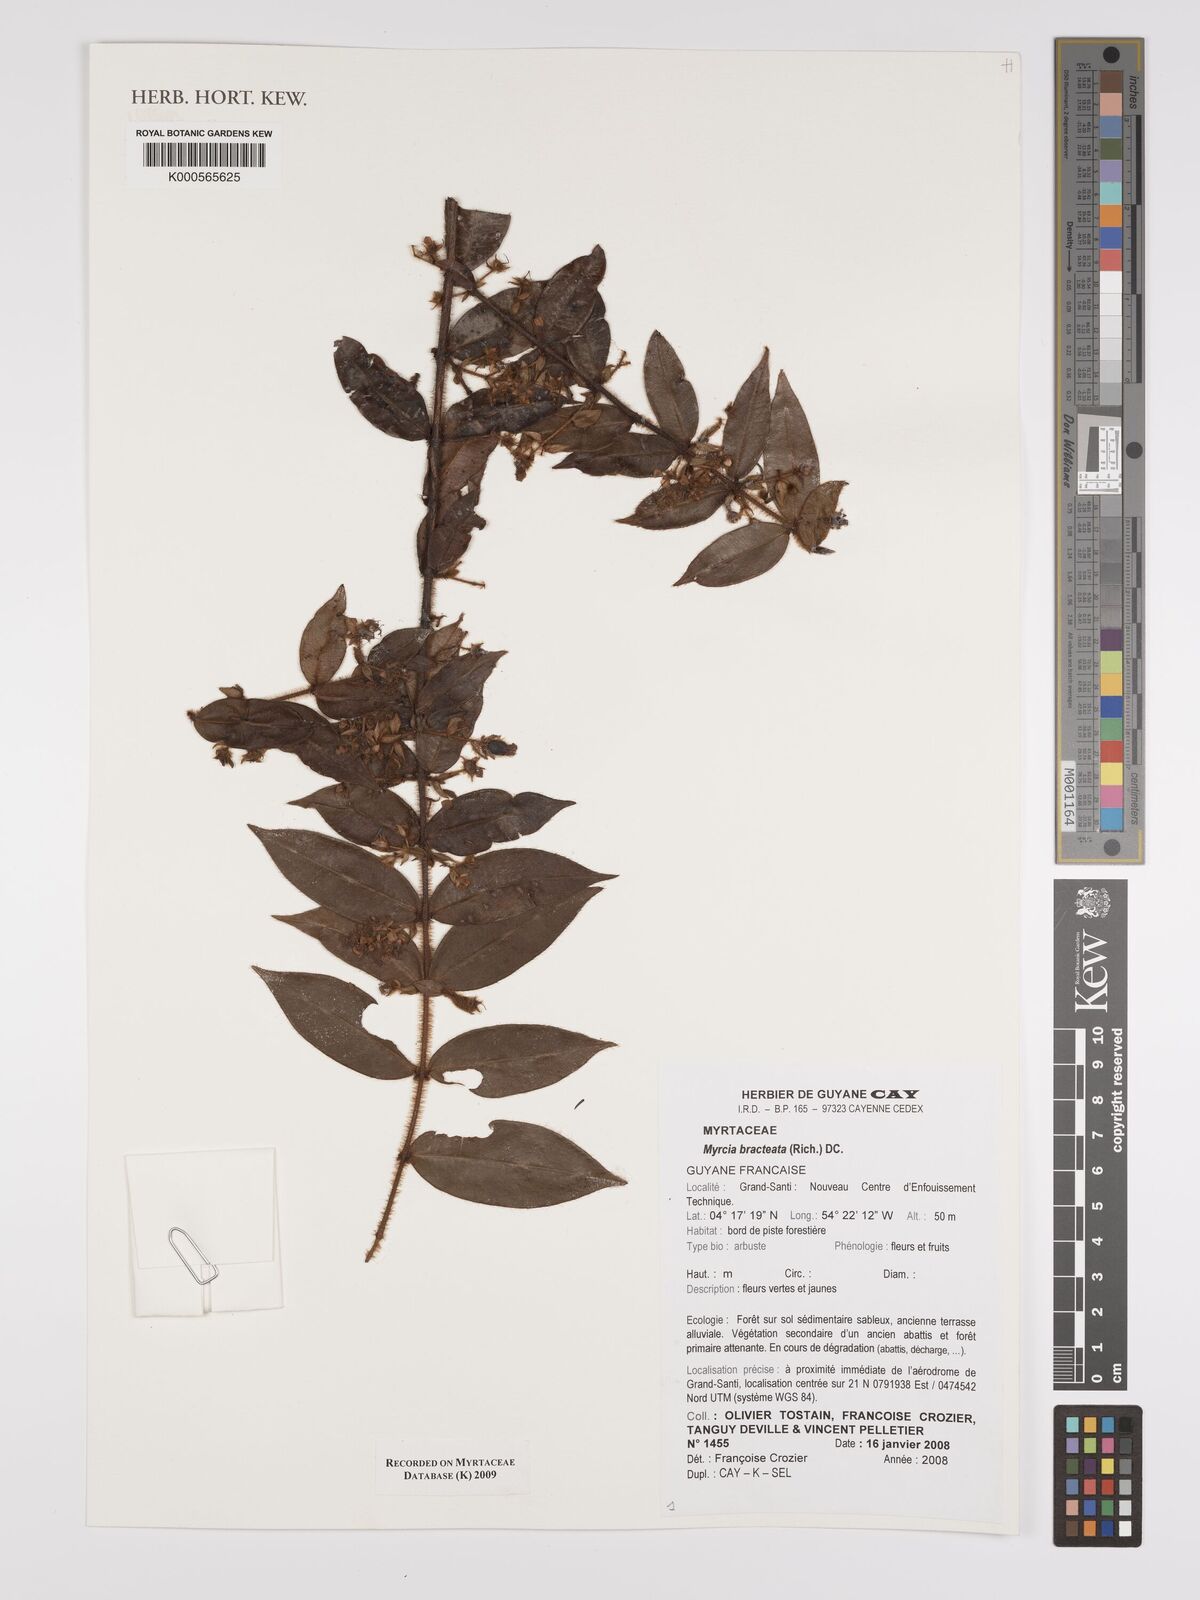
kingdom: Plantae
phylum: Tracheophyta
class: Magnoliopsida
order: Myrtales
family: Myrtaceae
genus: Myrcia
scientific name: Myrcia bracteata
